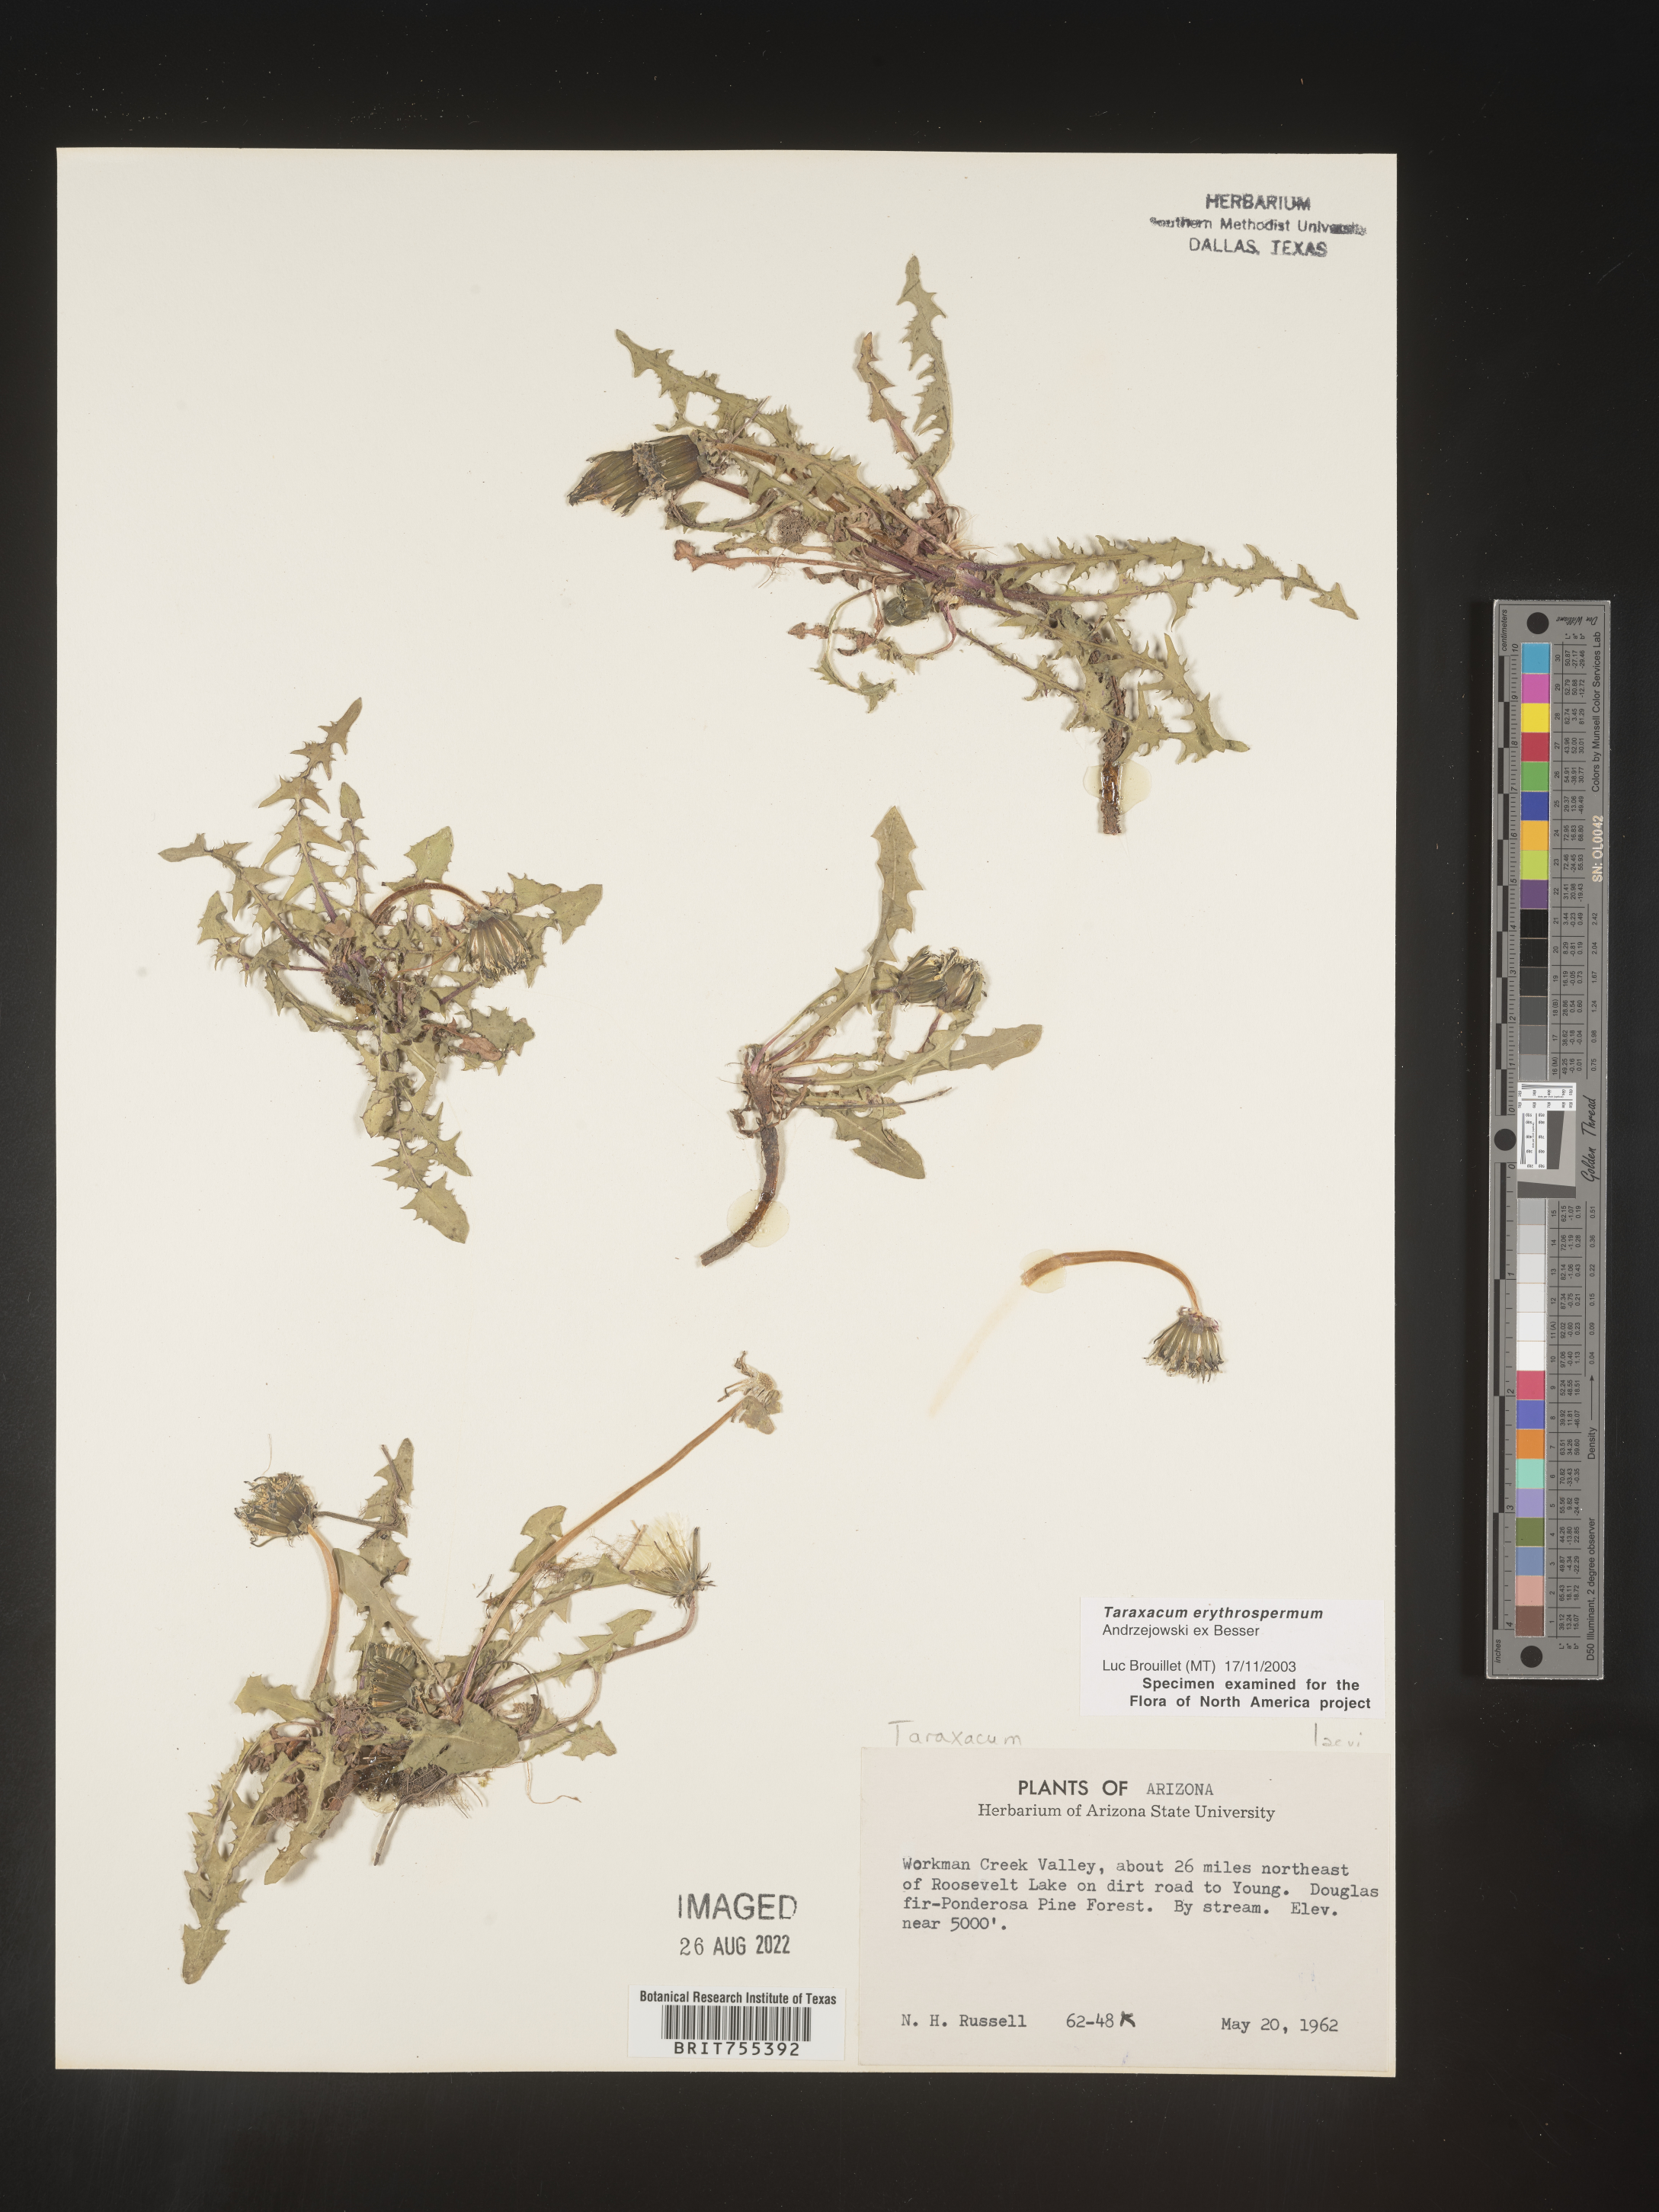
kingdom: Plantae
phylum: Tracheophyta
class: Magnoliopsida
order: Asterales
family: Asteraceae
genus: Taraxacum
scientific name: Taraxacum erythrospermum
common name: Rock dandelion
